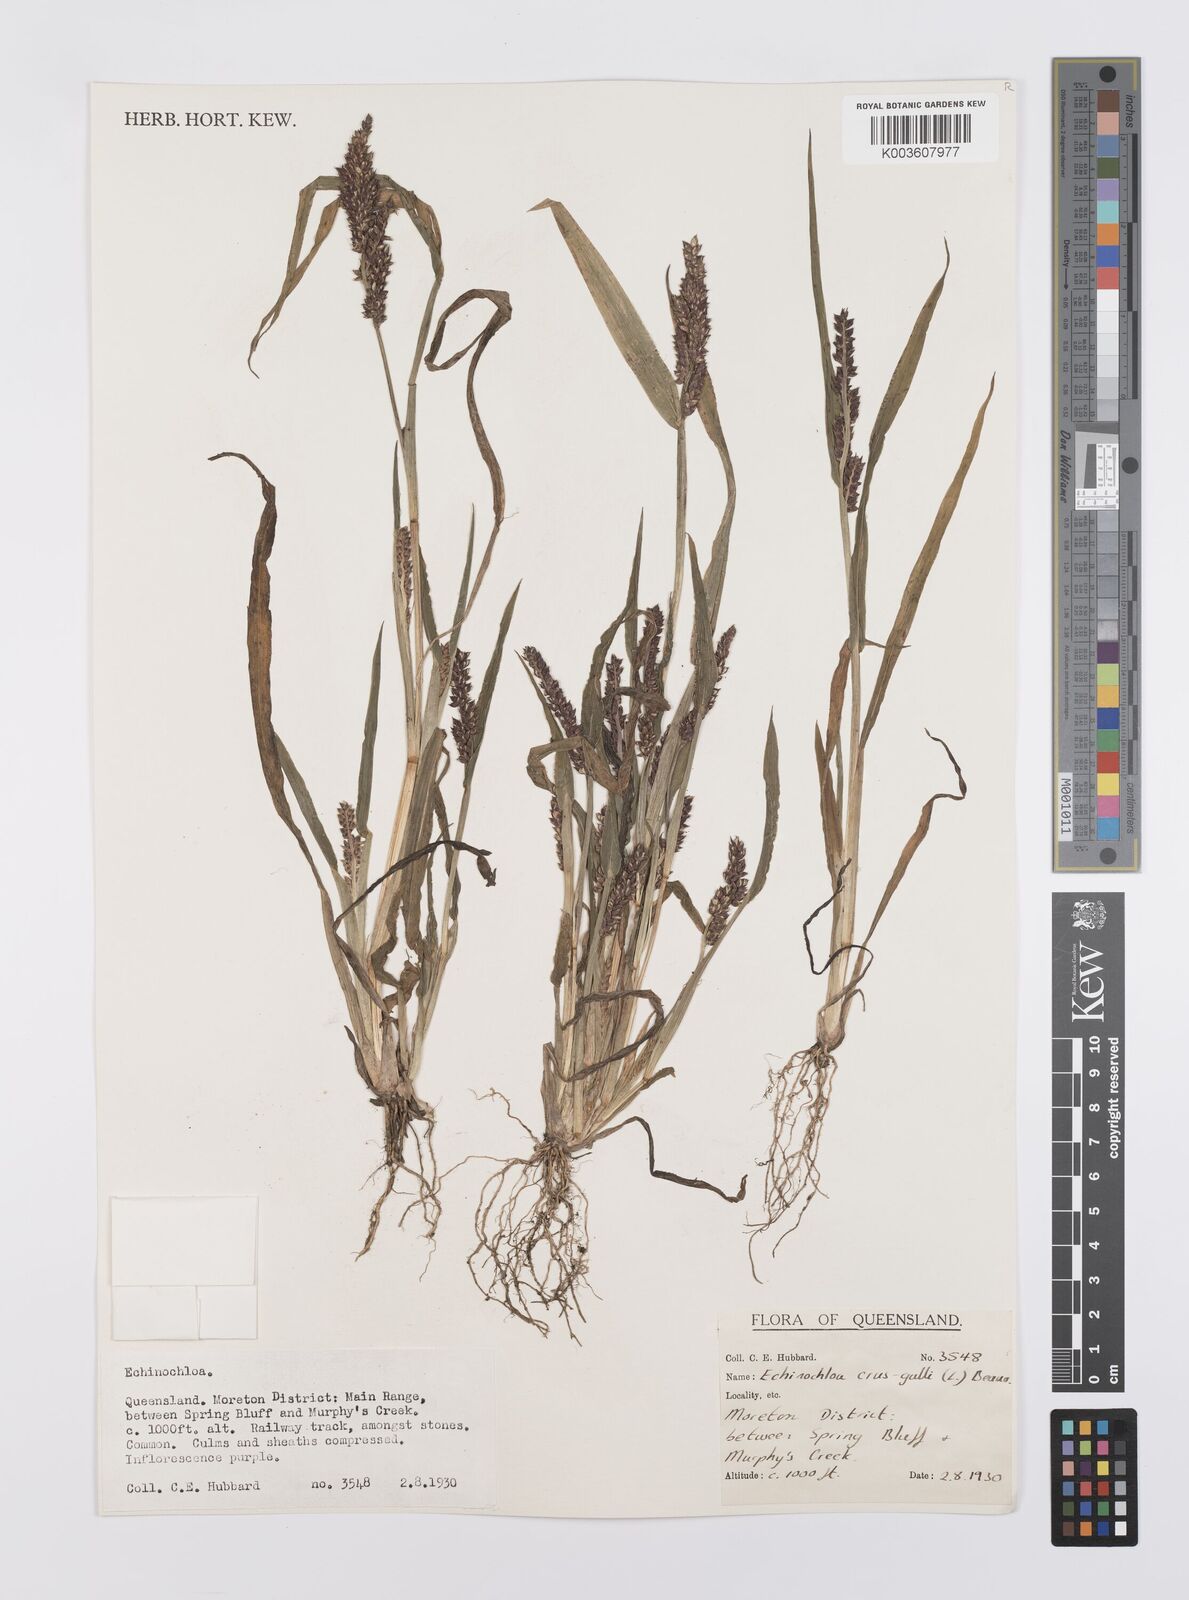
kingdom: Plantae
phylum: Tracheophyta
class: Liliopsida
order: Poales
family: Poaceae
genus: Echinochloa
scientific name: Echinochloa crus-galli
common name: Cockspur
